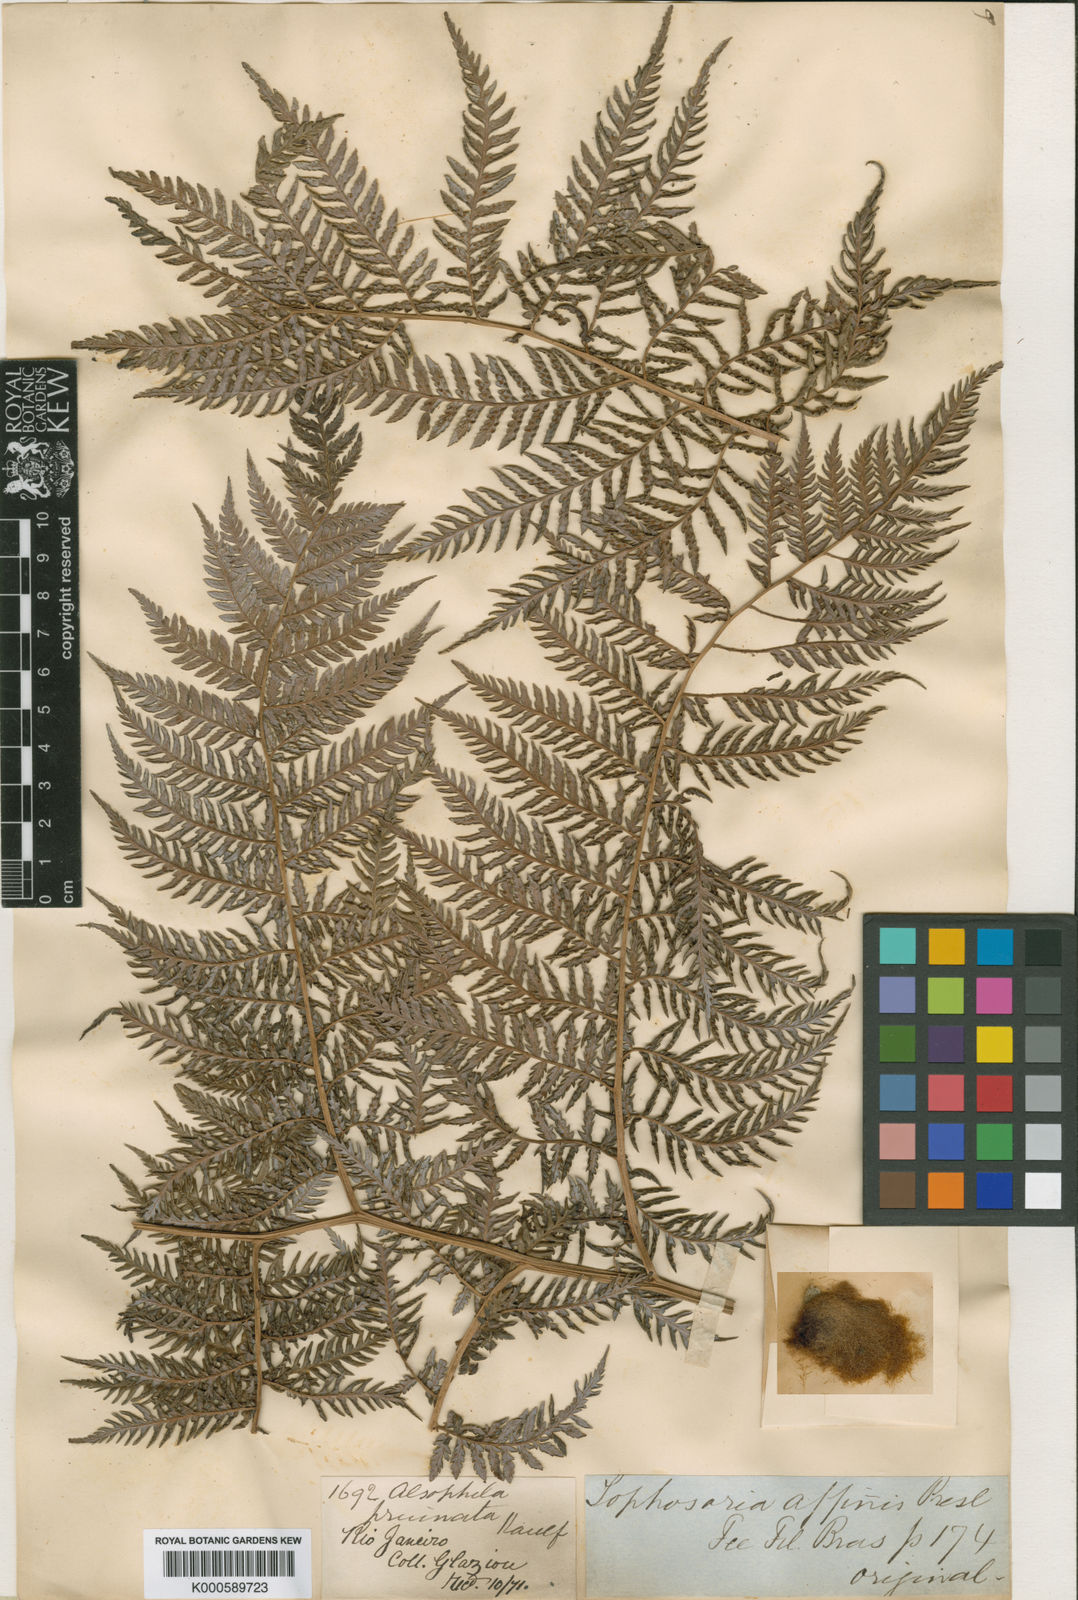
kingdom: Plantae
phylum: Tracheophyta
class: Polypodiopsida
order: Cyatheales
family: Dicksoniaceae
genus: Lophosoria
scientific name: Lophosoria quadripinnata
